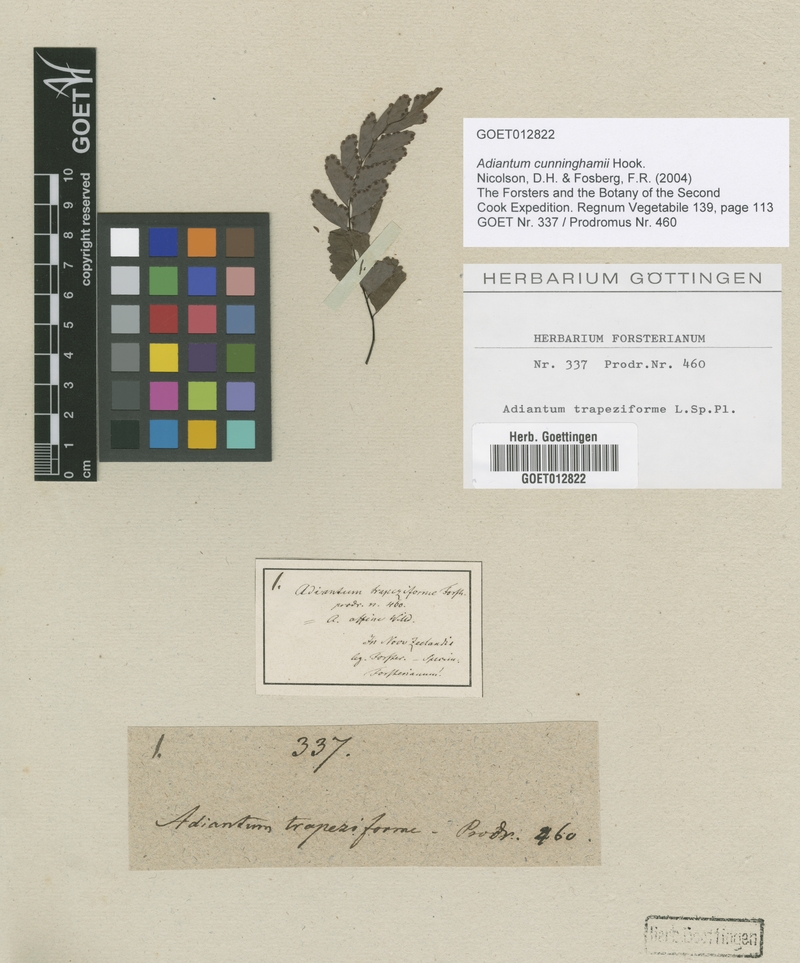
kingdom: Plantae
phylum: Tracheophyta
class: Polypodiopsida
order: Polypodiales
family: Pteridaceae
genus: Adiantum
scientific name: Adiantum cunninghamii
